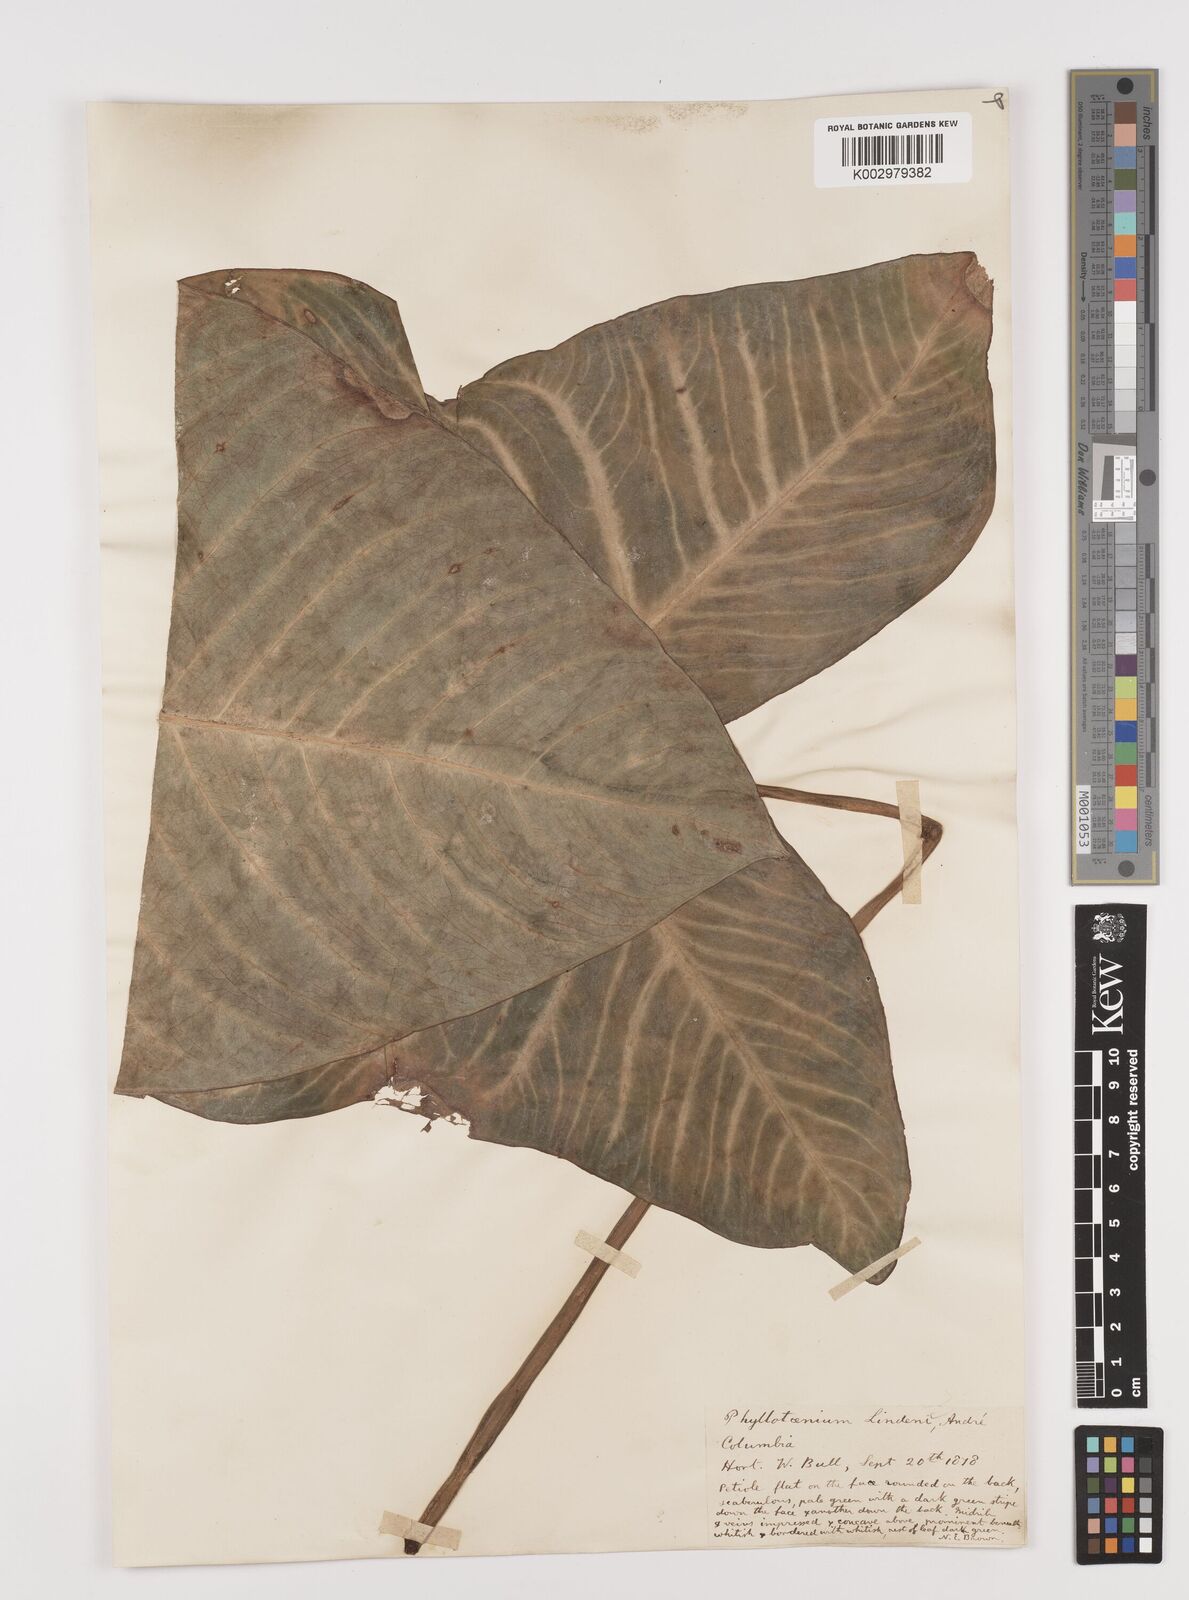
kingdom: Plantae
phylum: Tracheophyta
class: Liliopsida
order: Alismatales
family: Araceae
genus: Caladium
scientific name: Caladium
